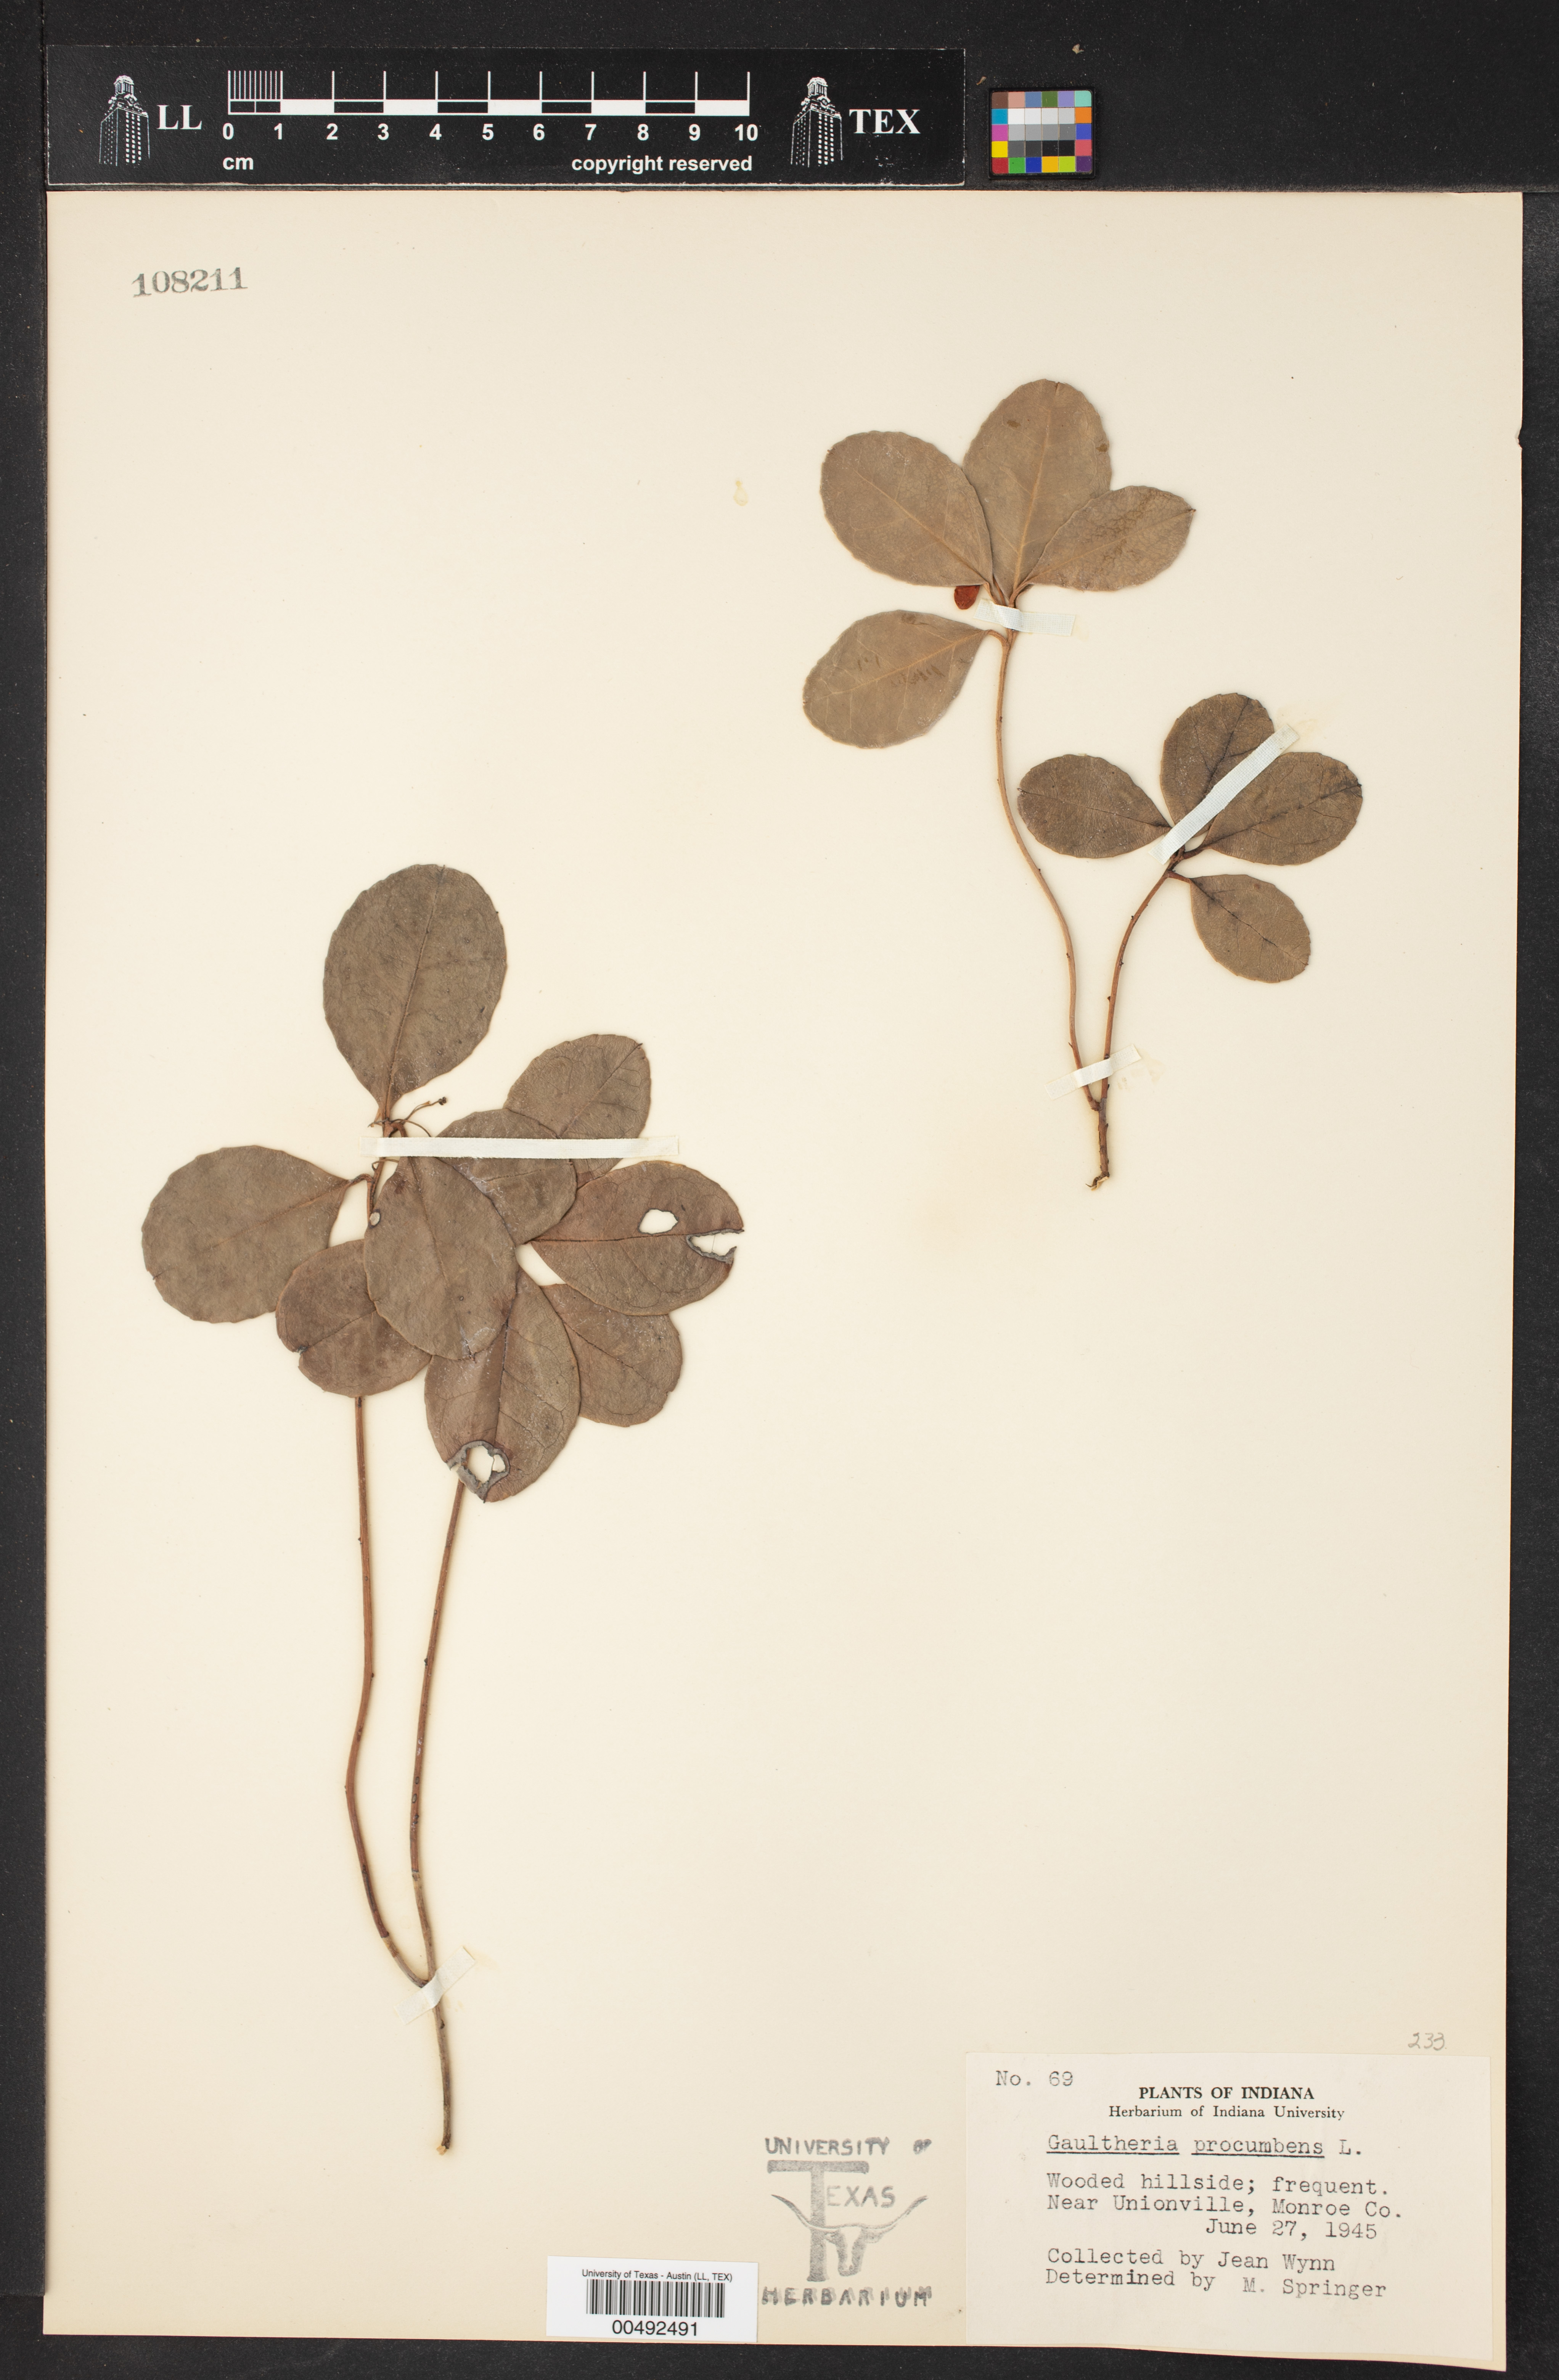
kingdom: Plantae
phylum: Tracheophyta
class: Magnoliopsida
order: Ericales
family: Ericaceae
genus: Gaultheria
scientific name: Gaultheria procumbens
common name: Checkerberry
